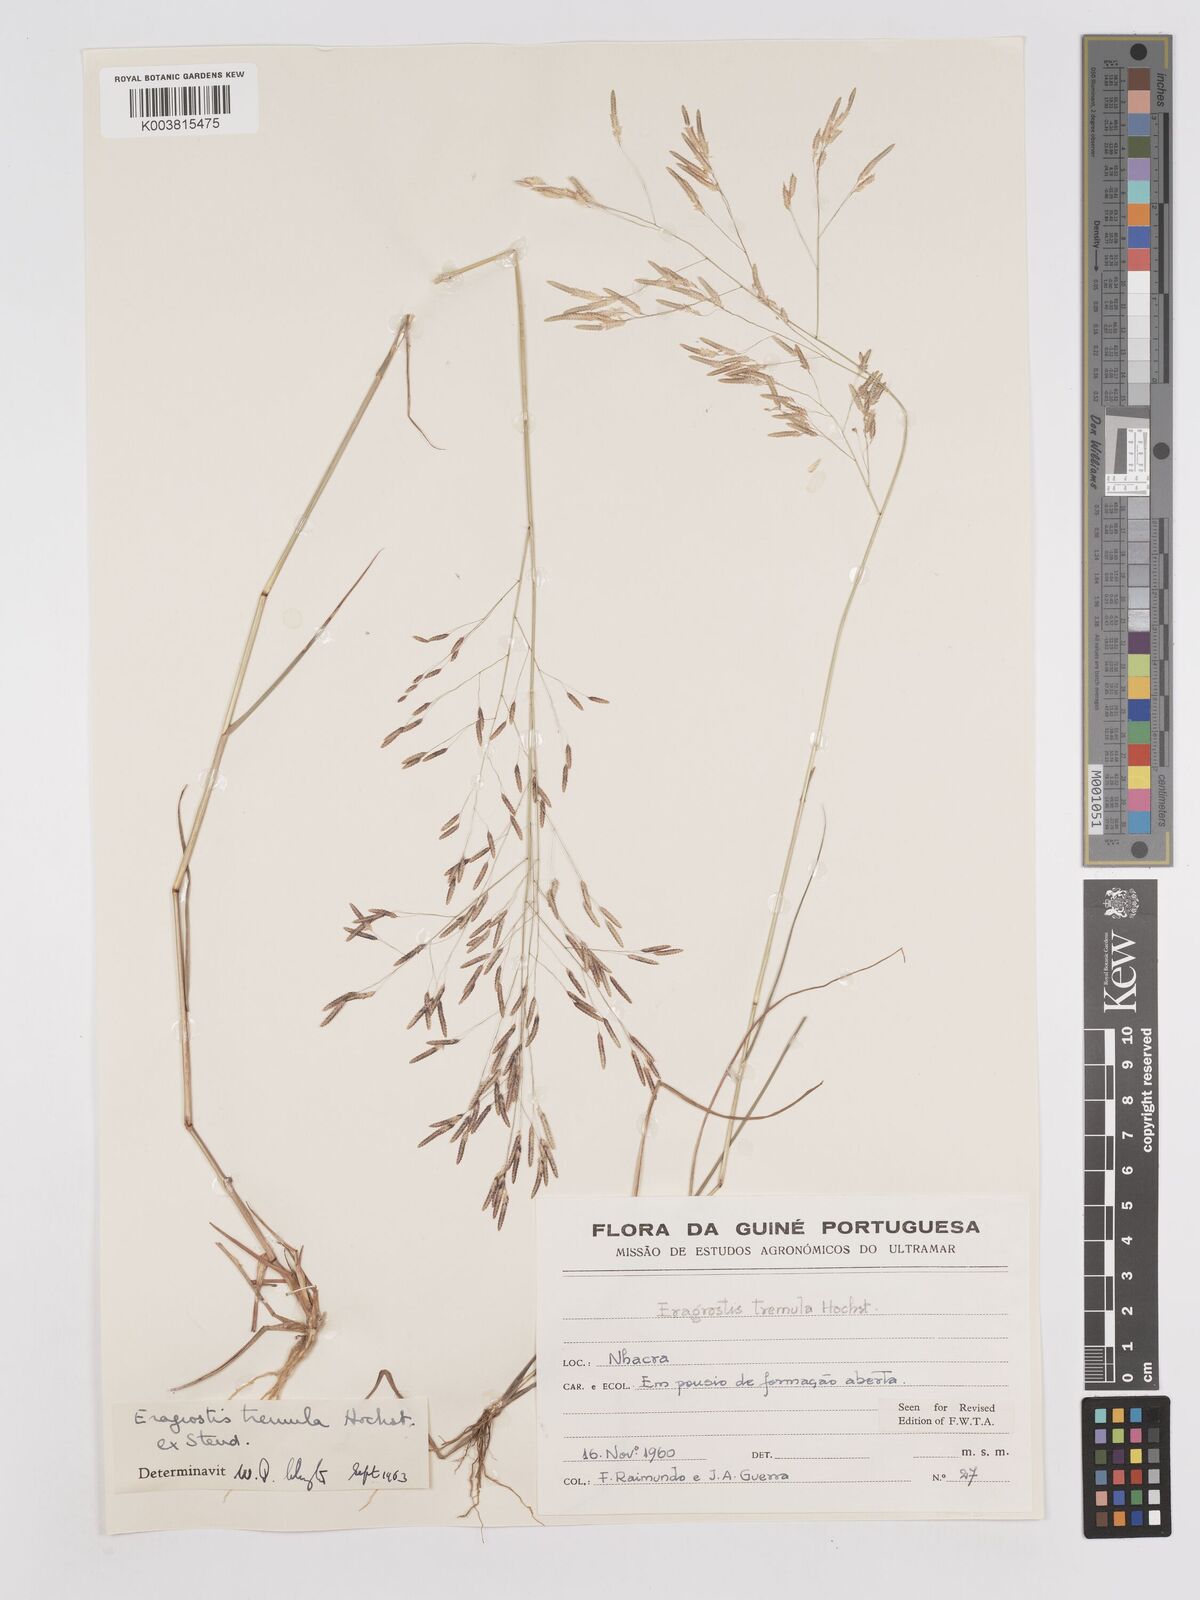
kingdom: Plantae
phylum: Tracheophyta
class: Liliopsida
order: Poales
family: Poaceae
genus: Eragrostis
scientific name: Eragrostis tremula
